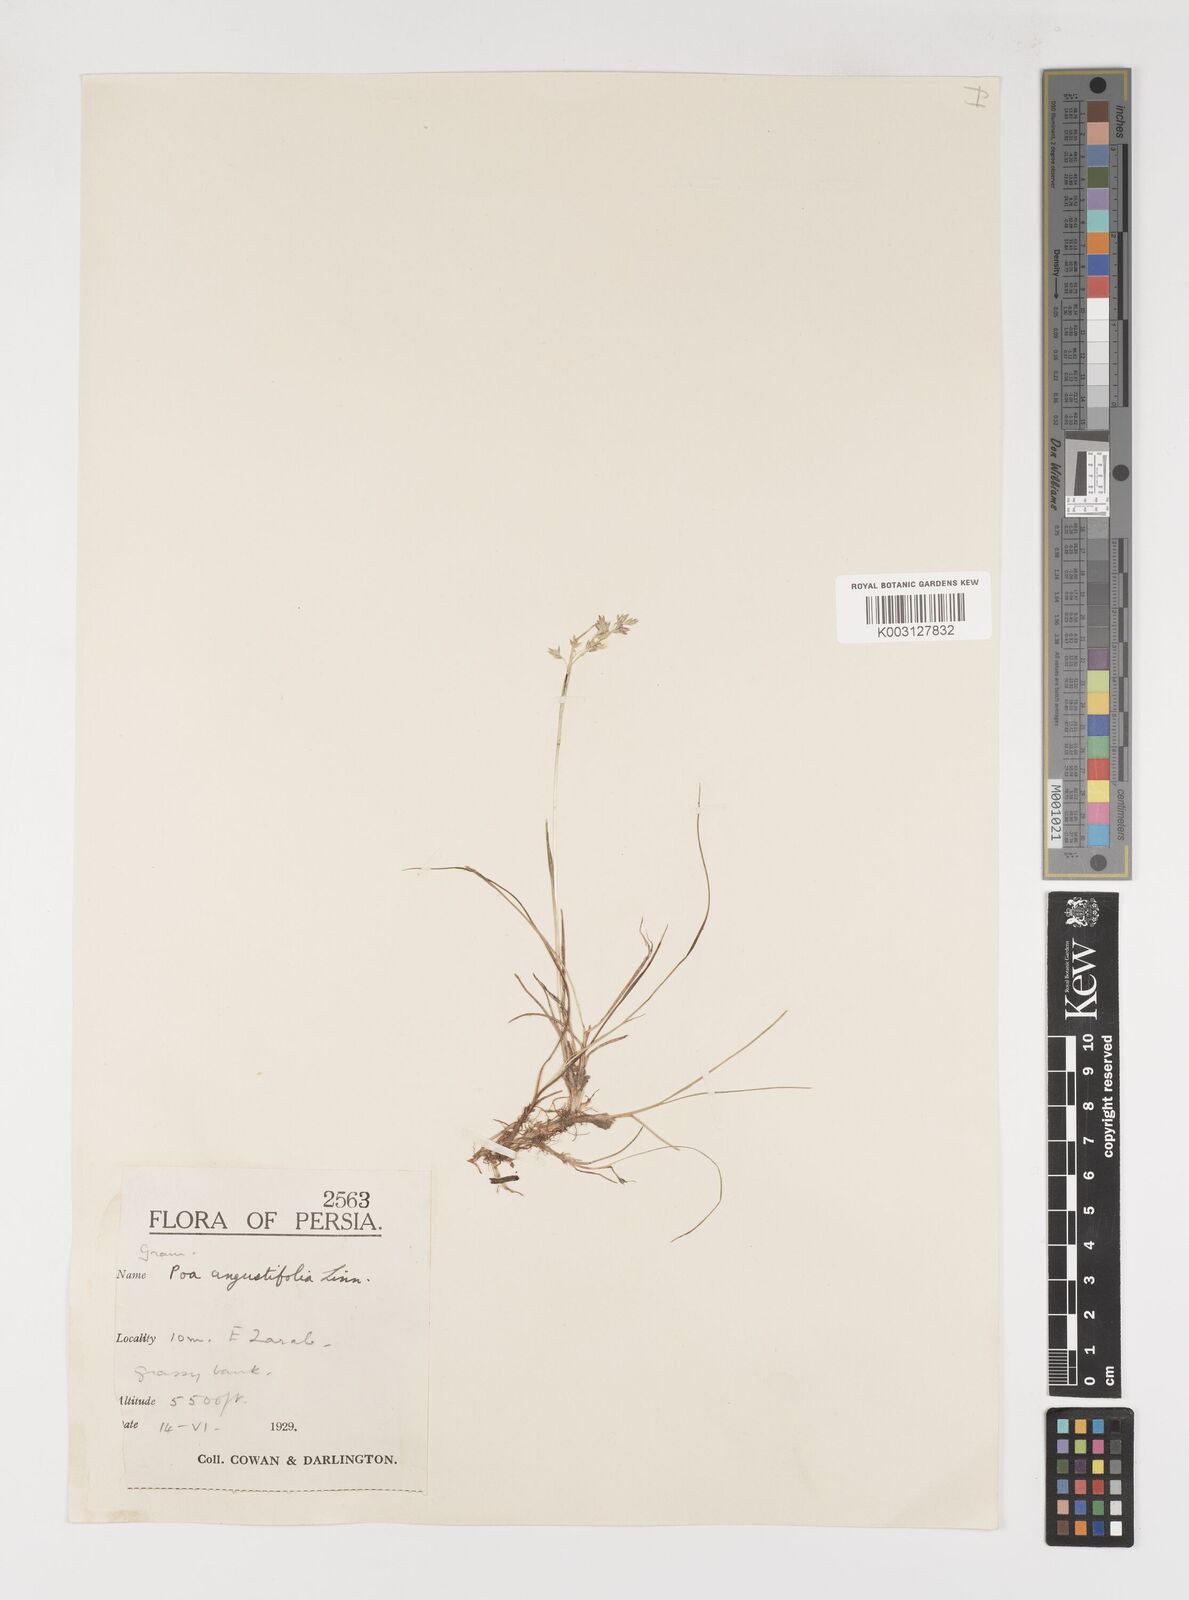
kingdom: Plantae
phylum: Tracheophyta
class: Liliopsida
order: Poales
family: Poaceae
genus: Poa
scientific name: Poa angustifolia
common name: Narrow-leaved meadow-grass
